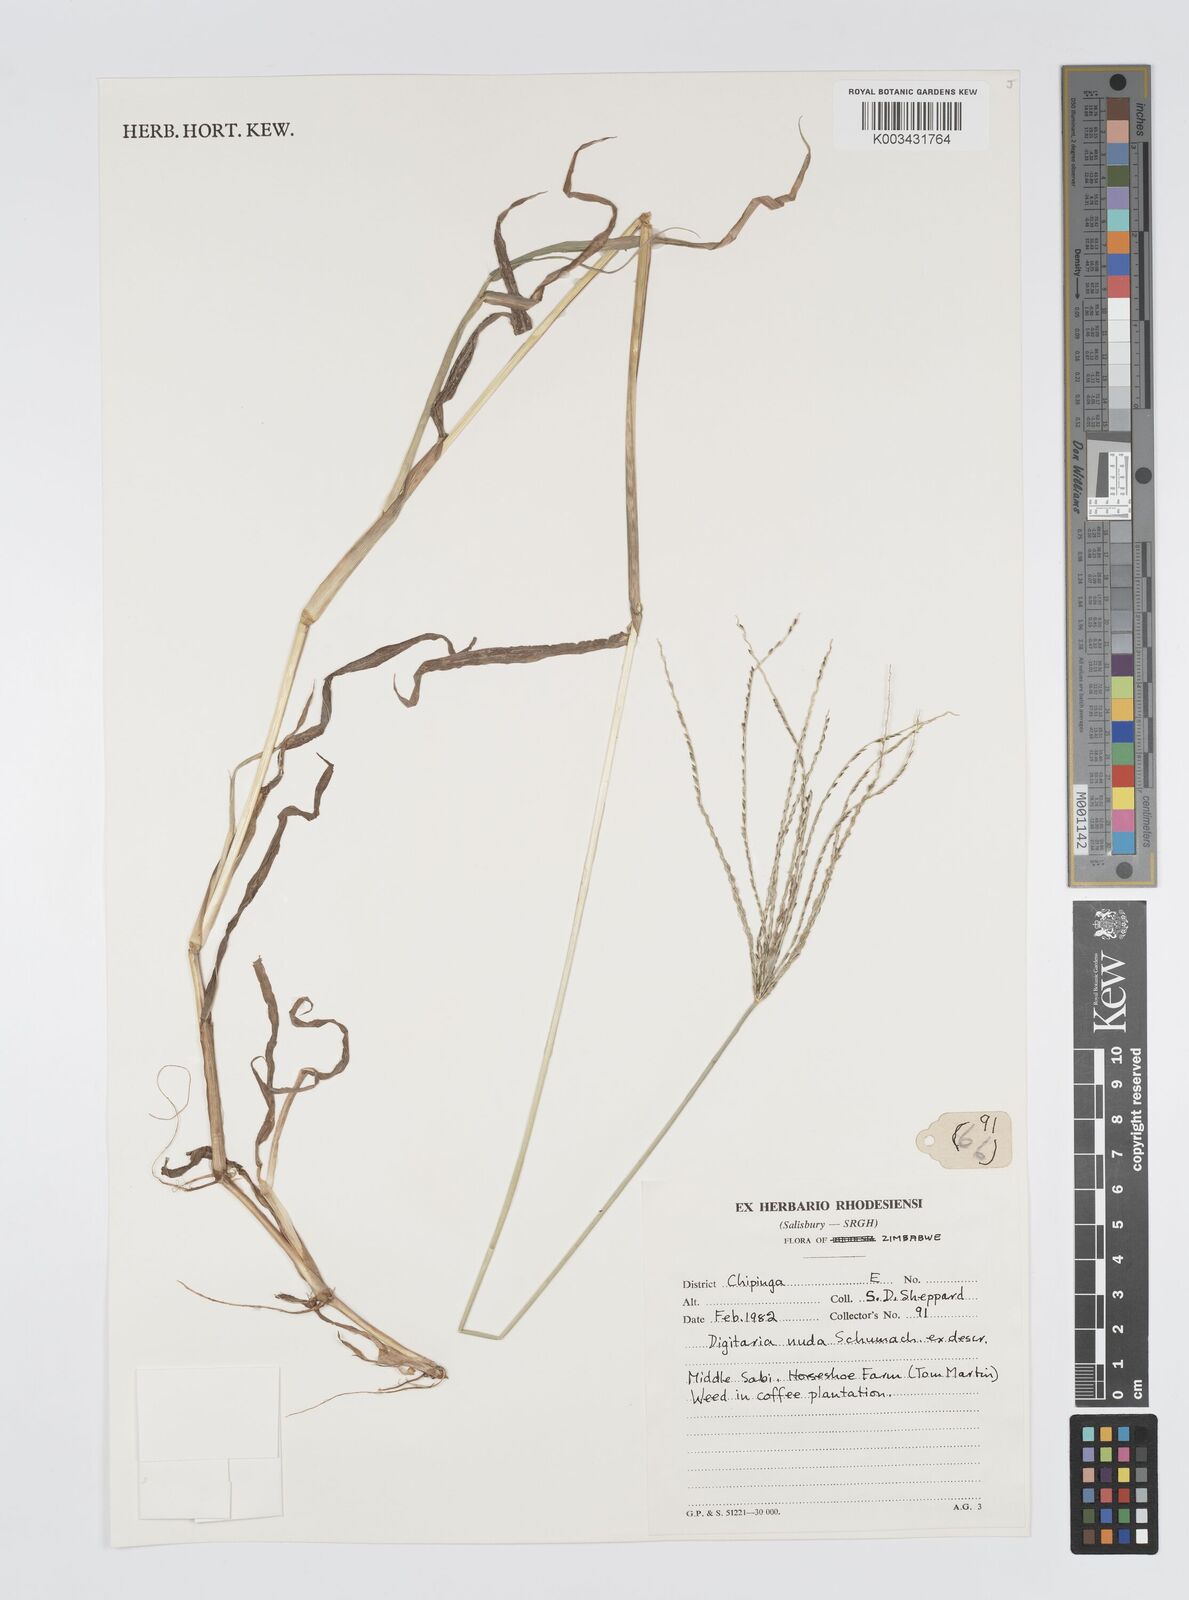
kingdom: Plantae
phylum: Tracheophyta
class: Liliopsida
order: Poales
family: Poaceae
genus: Digitaria
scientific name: Digitaria nuda
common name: Naked crabgrass
